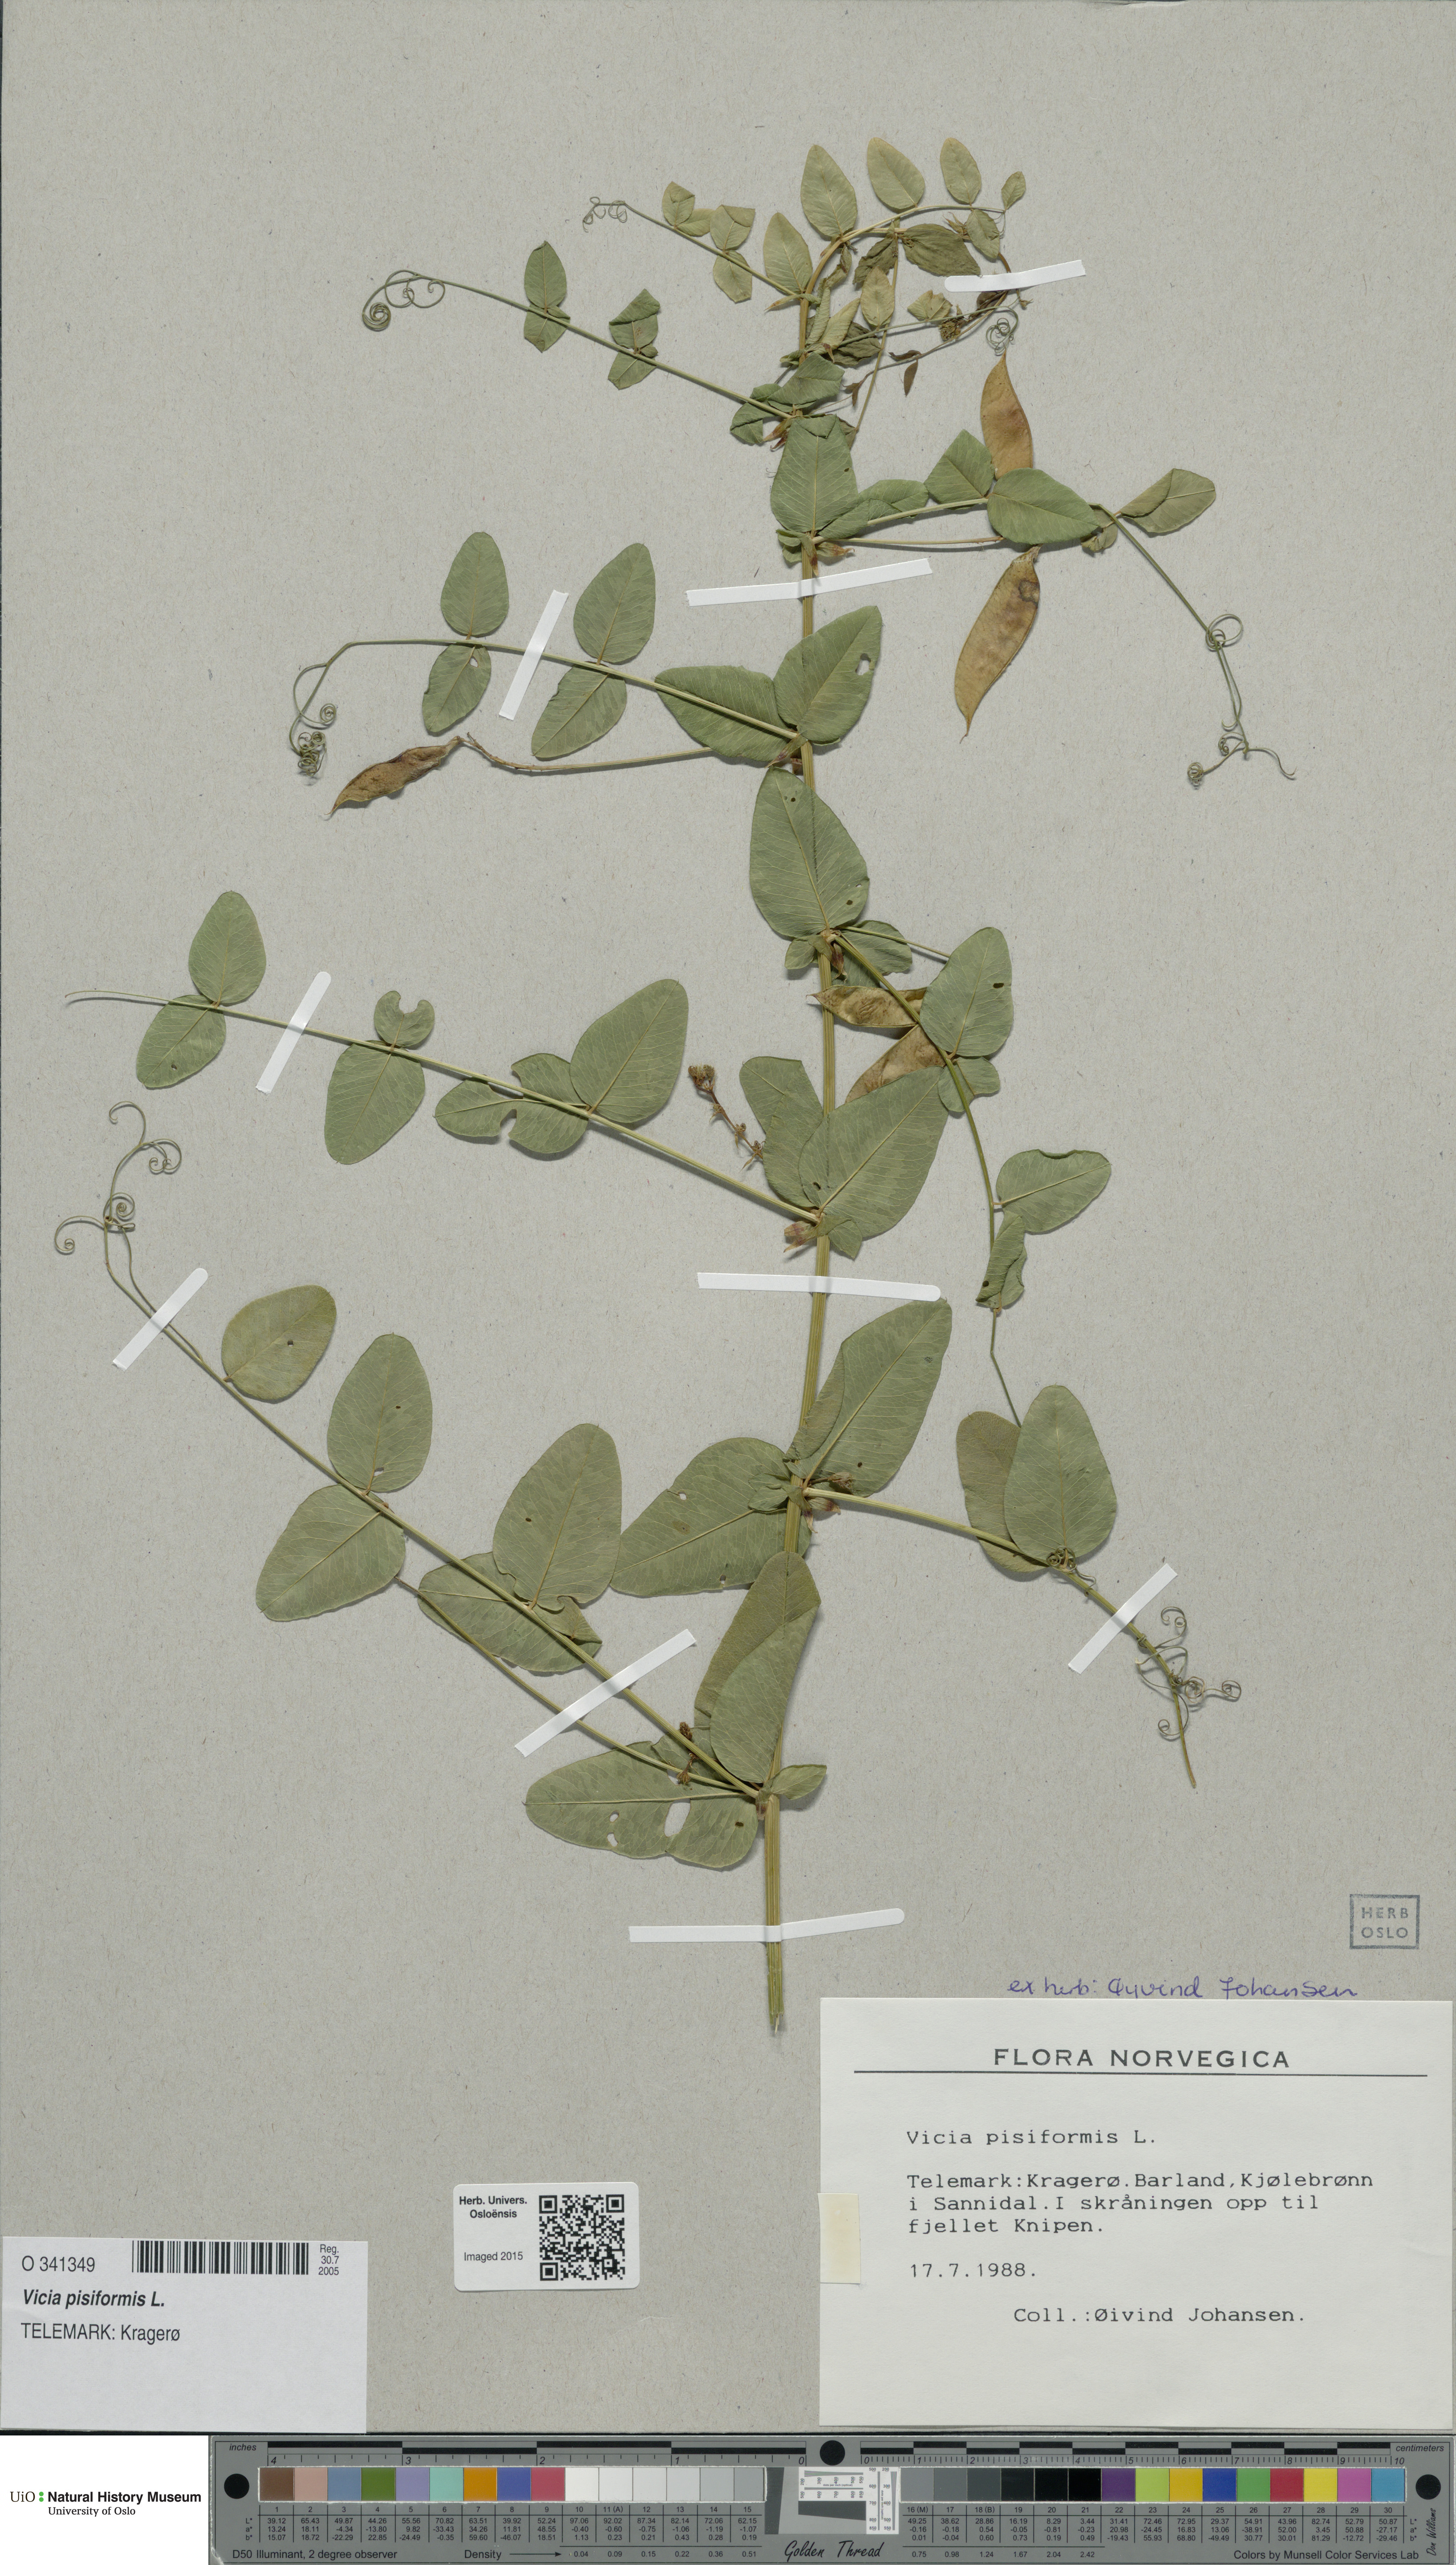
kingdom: Plantae
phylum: Tracheophyta
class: Magnoliopsida
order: Fabales
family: Fabaceae
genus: Vicia
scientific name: Vicia pisiformis
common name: Pale-flower vetch
